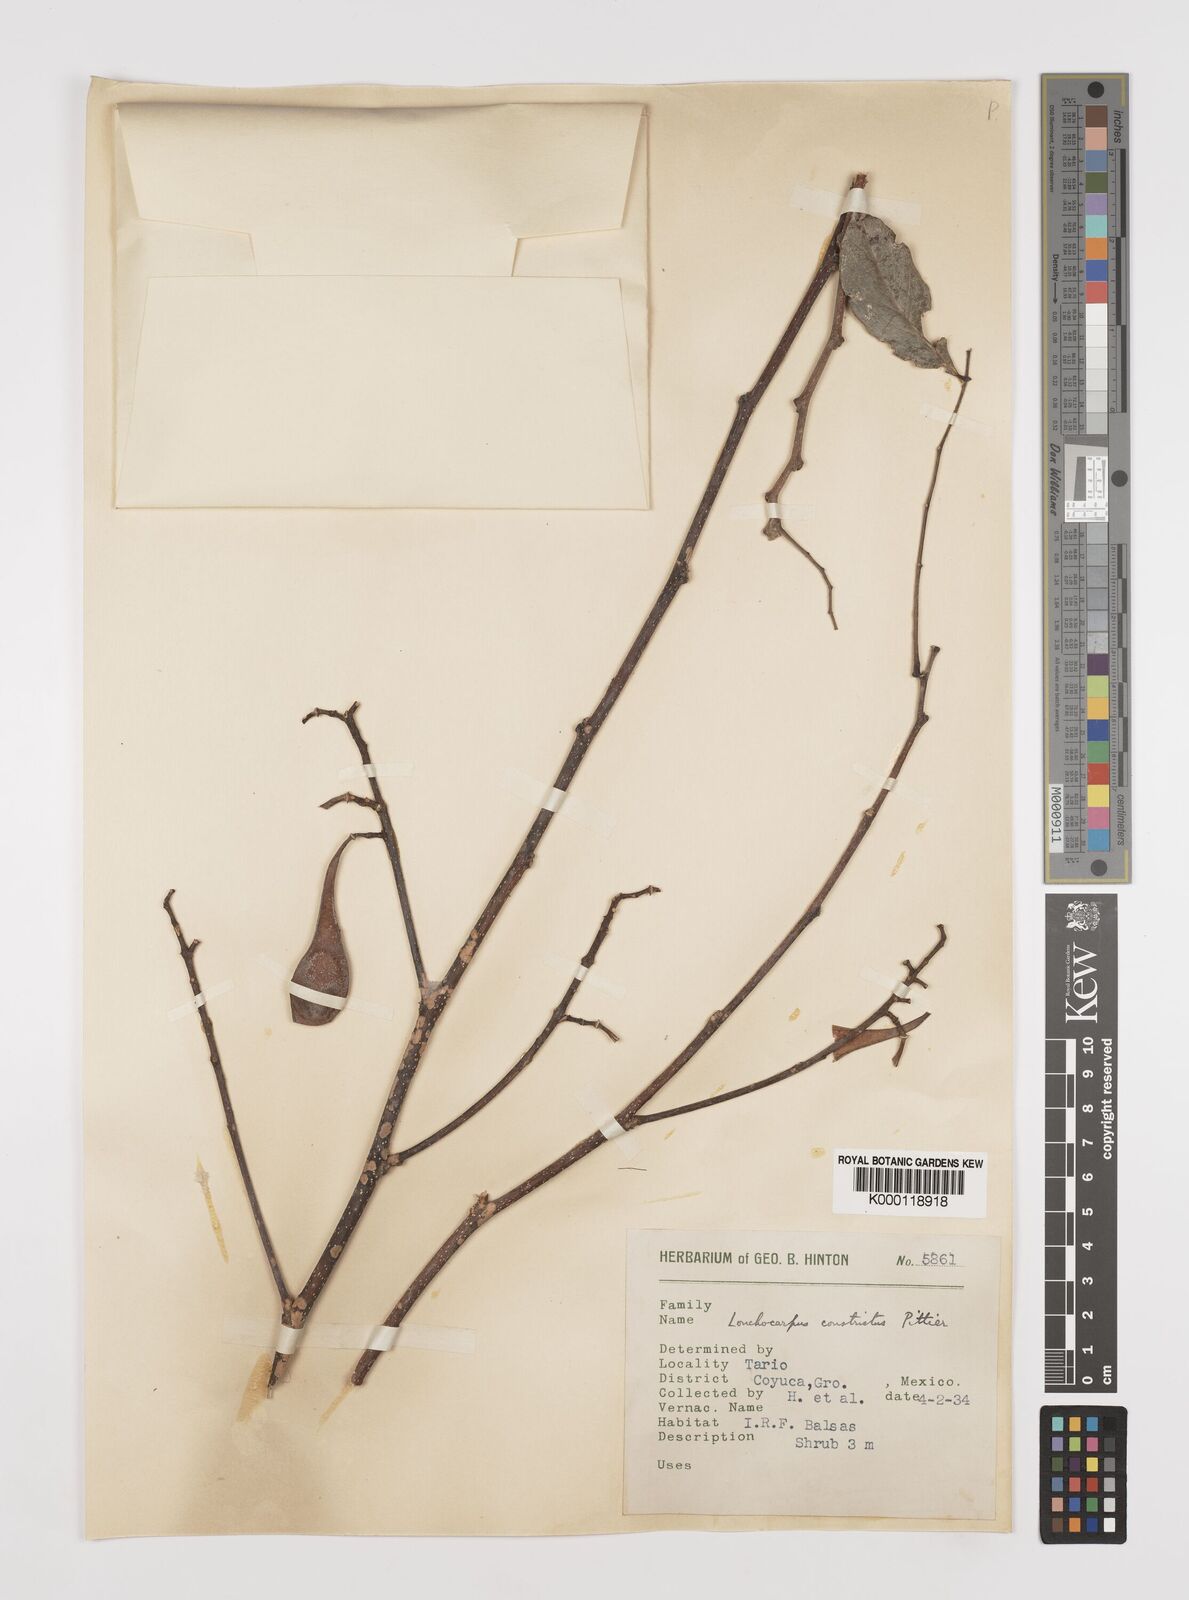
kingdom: Plantae
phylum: Tracheophyta
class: Magnoliopsida
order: Fabales
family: Fabaceae
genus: Lonchocarpus
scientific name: Lonchocarpus constrictus
